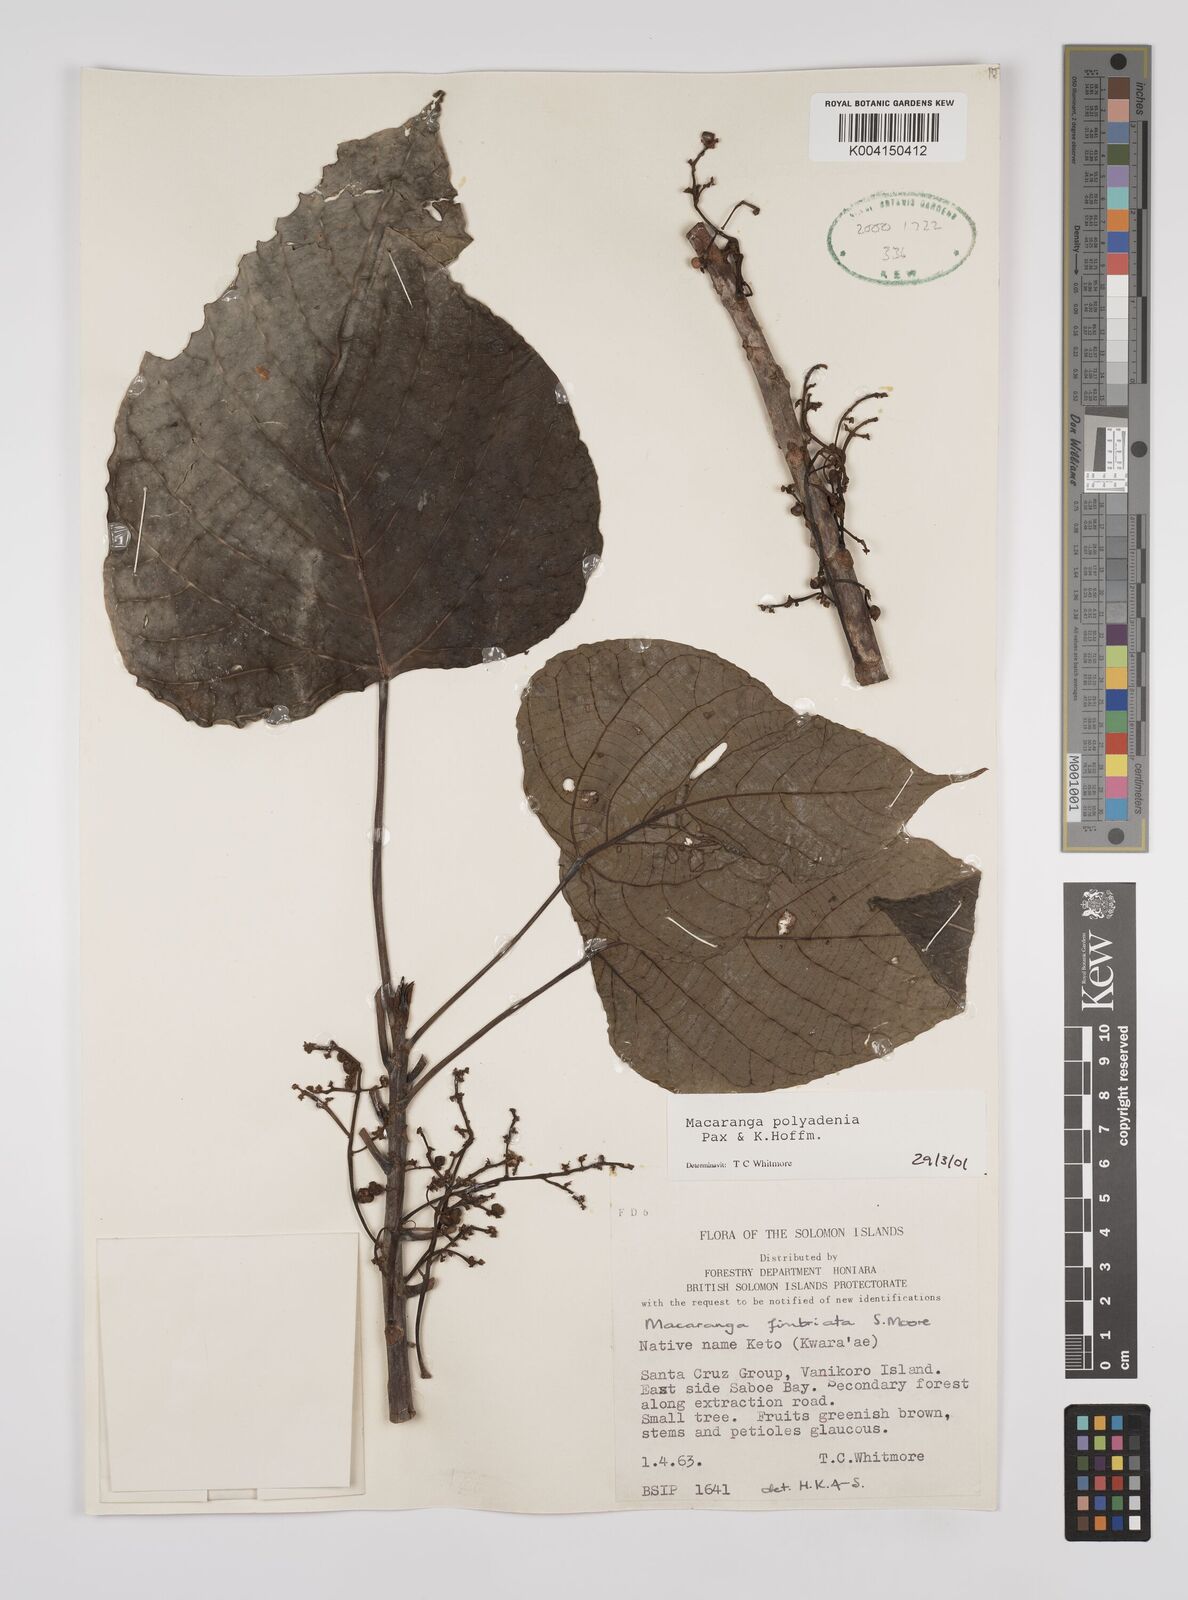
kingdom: Plantae
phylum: Tracheophyta
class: Magnoliopsida
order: Malpighiales
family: Euphorbiaceae
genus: Macaranga
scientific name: Macaranga polyadenia
